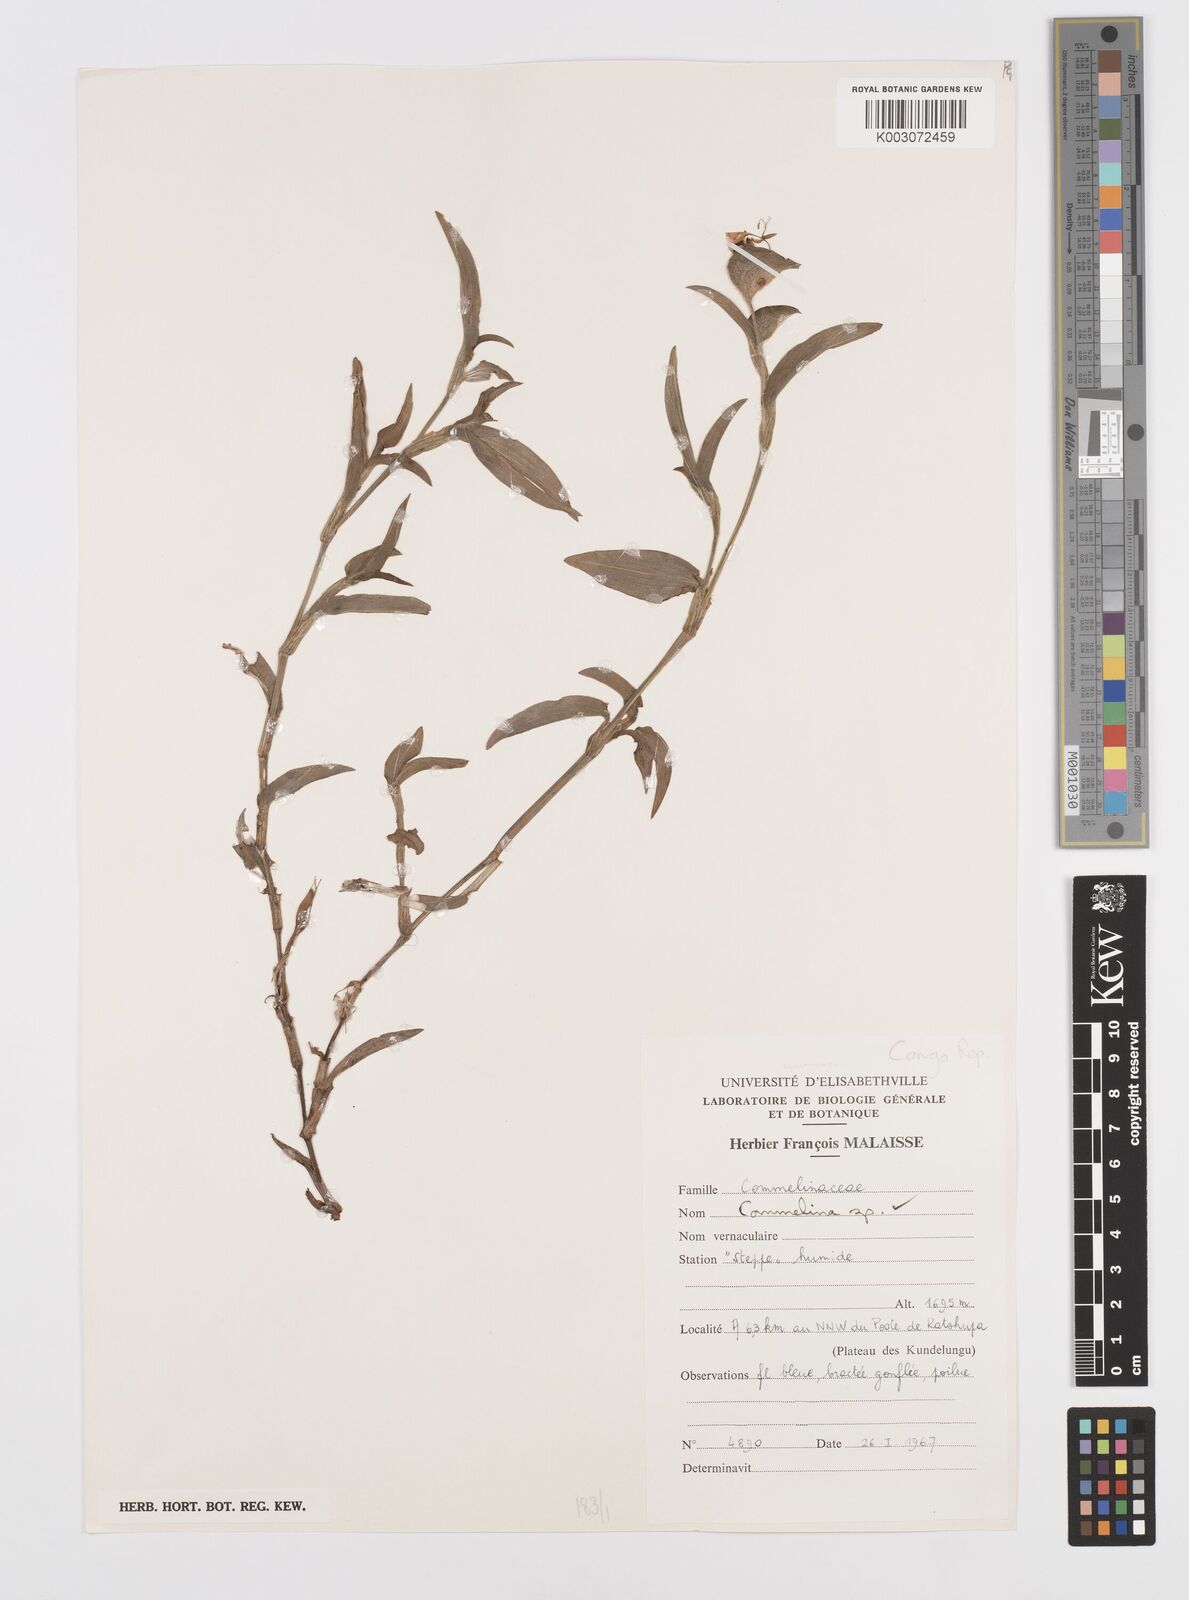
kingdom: Plantae
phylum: Tracheophyta
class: Liliopsida
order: Commelinales
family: Commelinaceae
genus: Commelina
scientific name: Commelina
